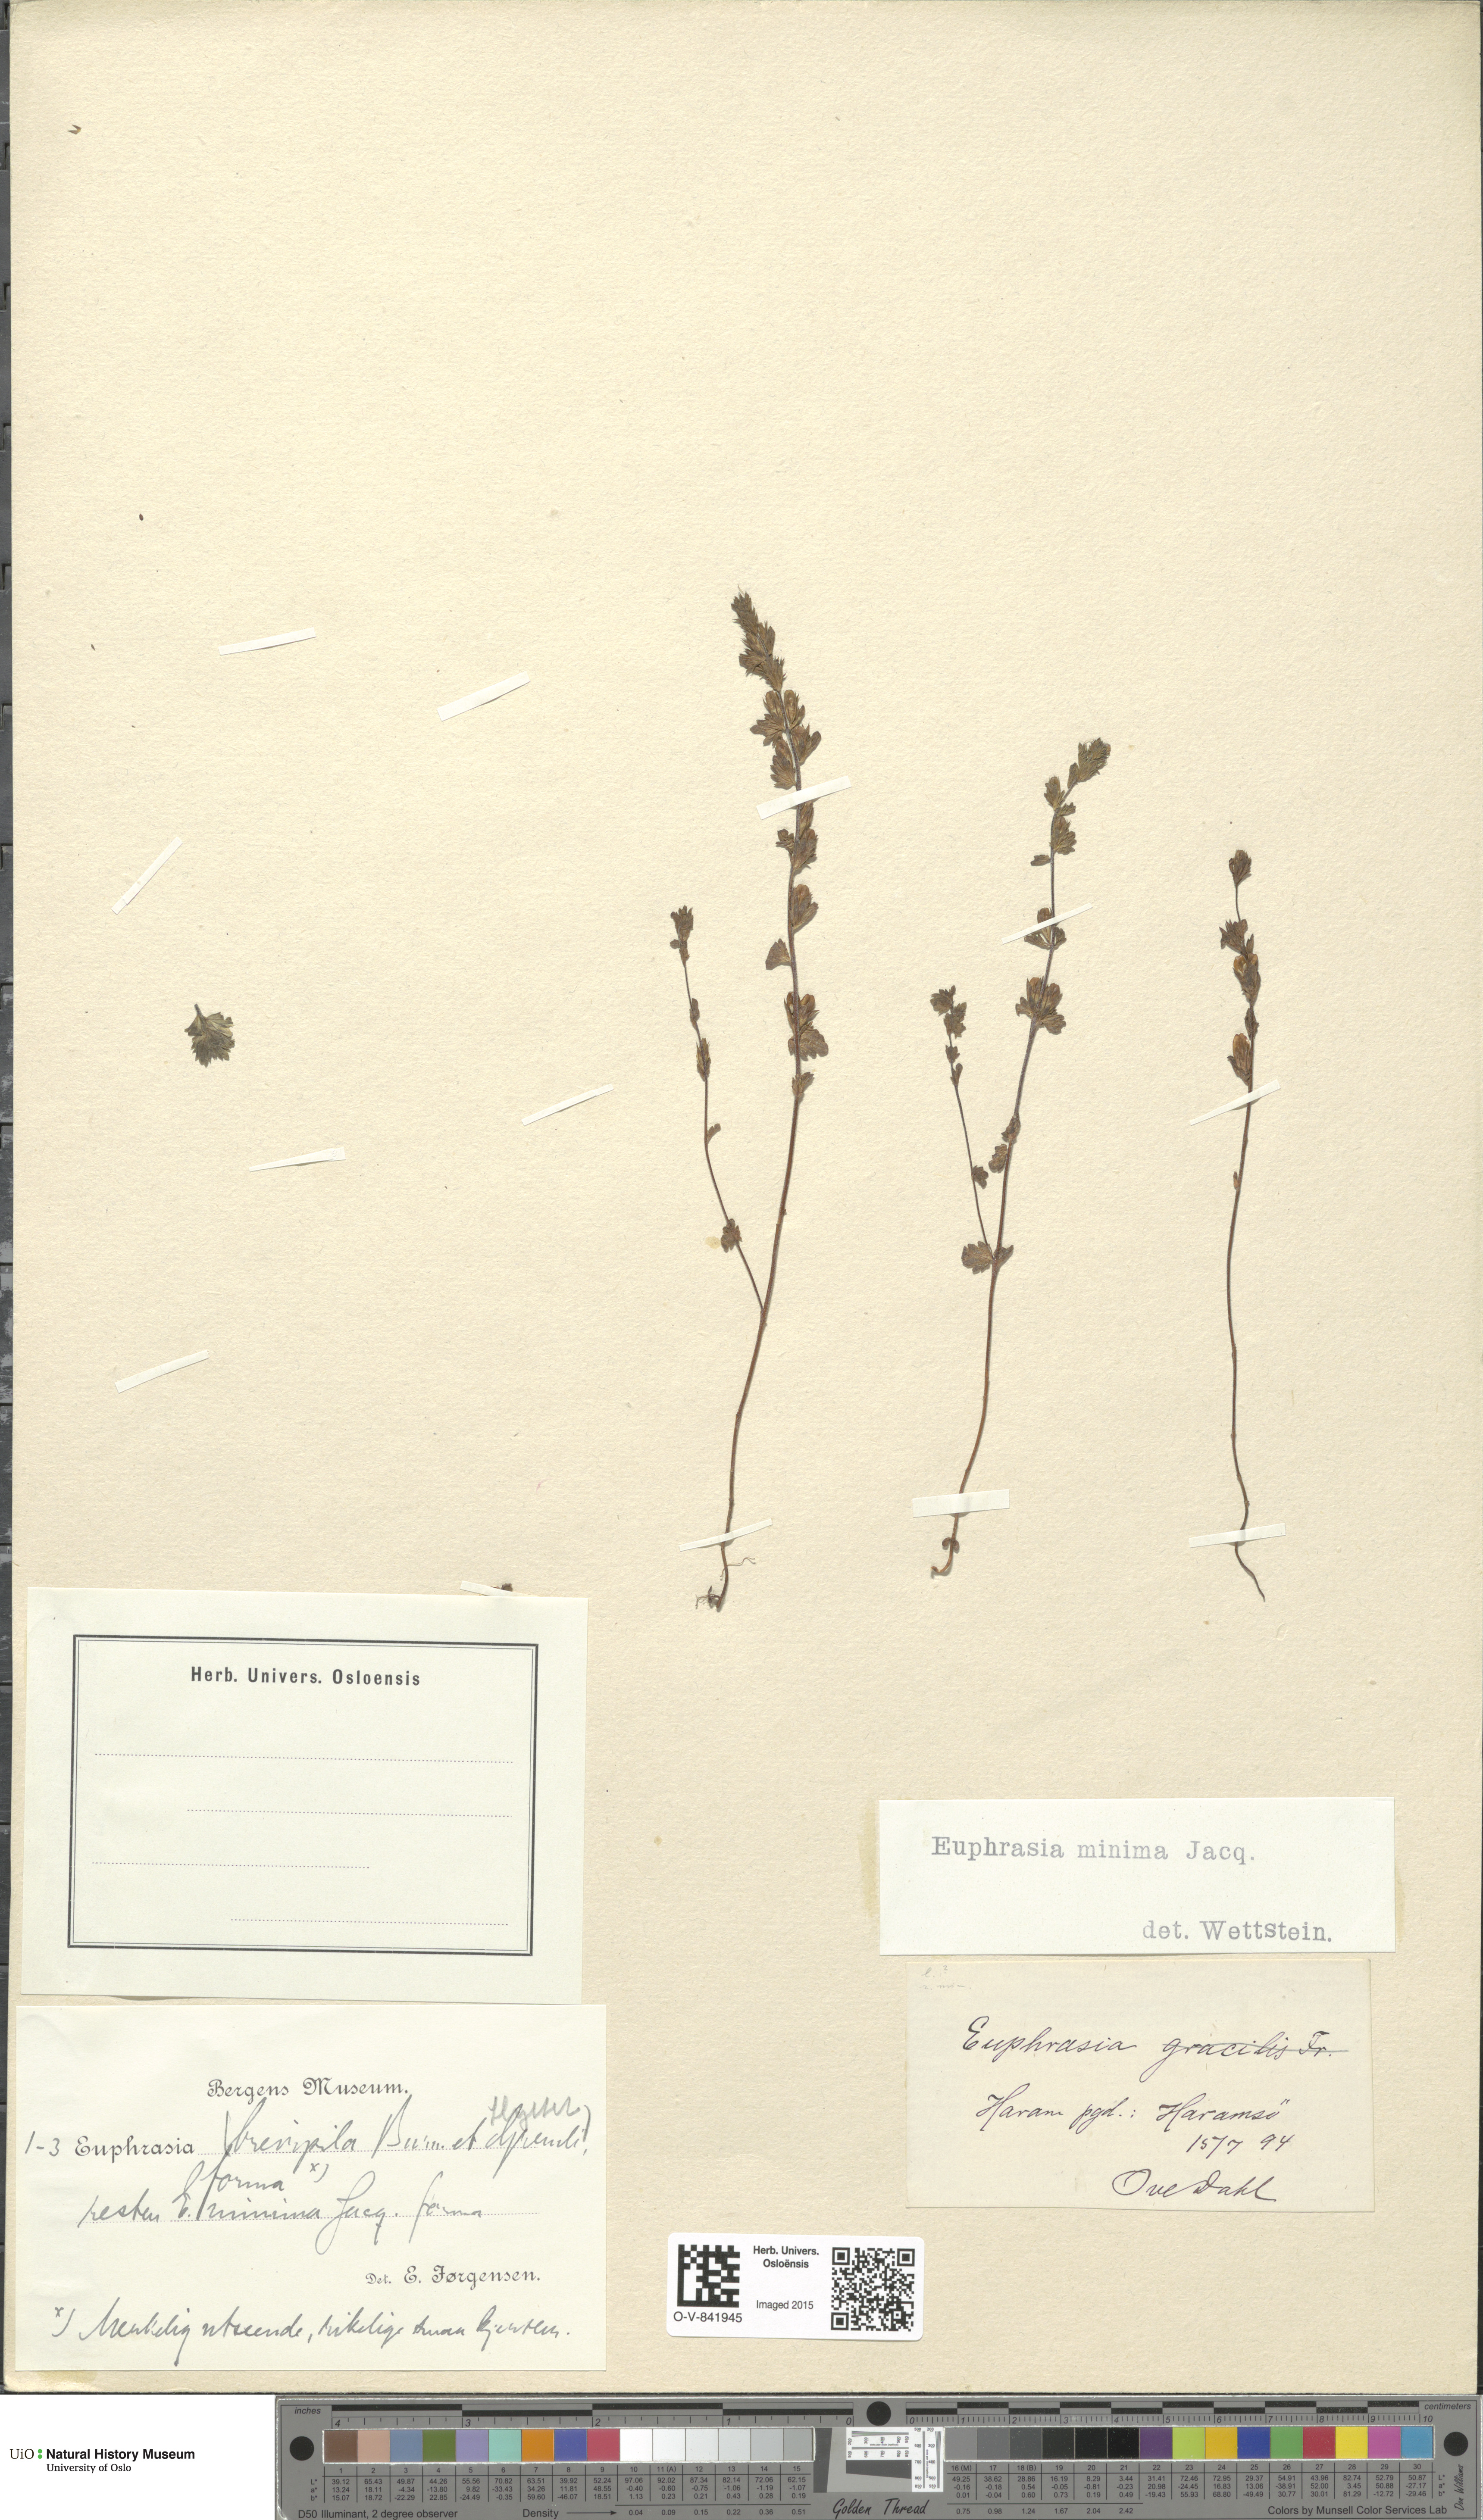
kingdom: Plantae
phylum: Tracheophyta
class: Magnoliopsida
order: Lamiales
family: Orobanchaceae
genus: Euphrasia
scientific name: Euphrasia wettsteinii
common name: Wettstein's eyebright
